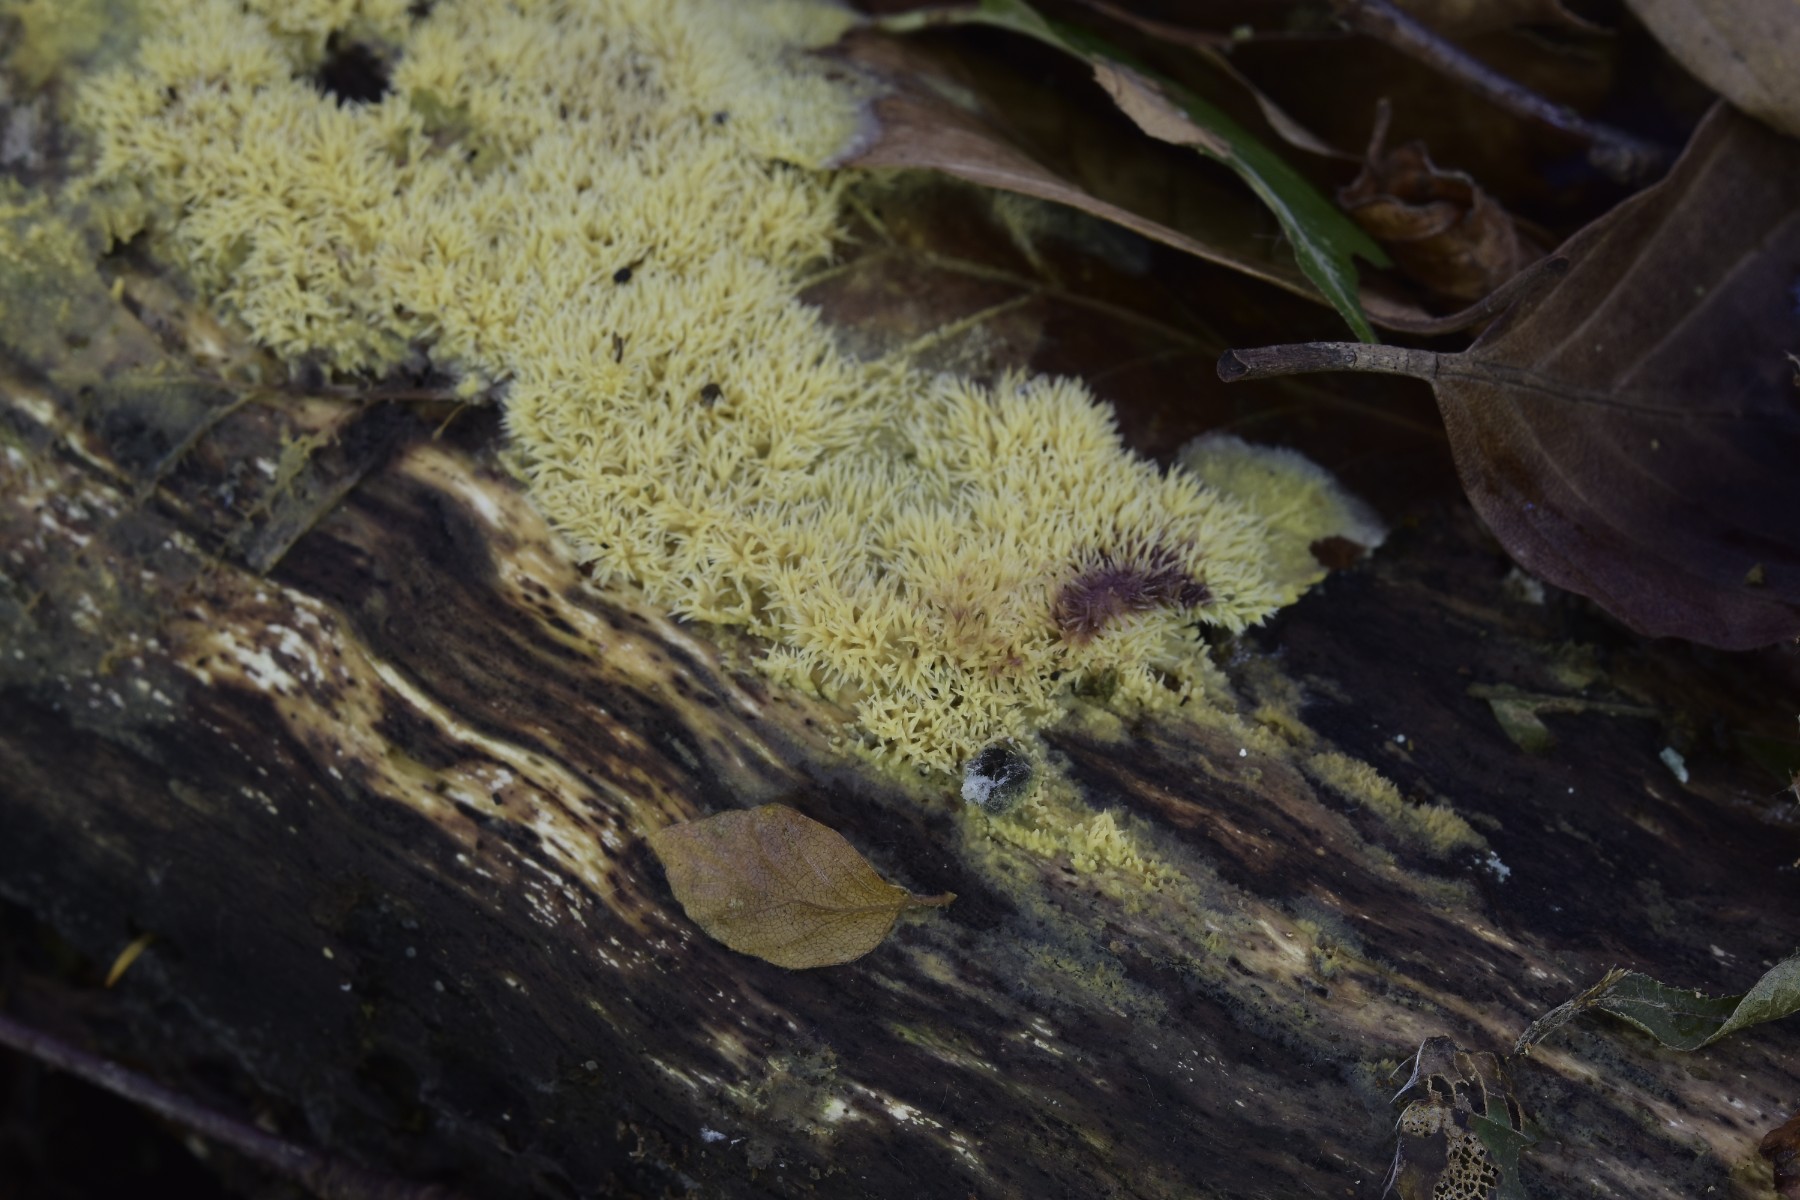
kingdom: Fungi
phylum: Basidiomycota
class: Agaricomycetes
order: Polyporales
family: Meruliaceae
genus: Mycoacia
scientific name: Mycoacia uda
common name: citrongul vokspig
